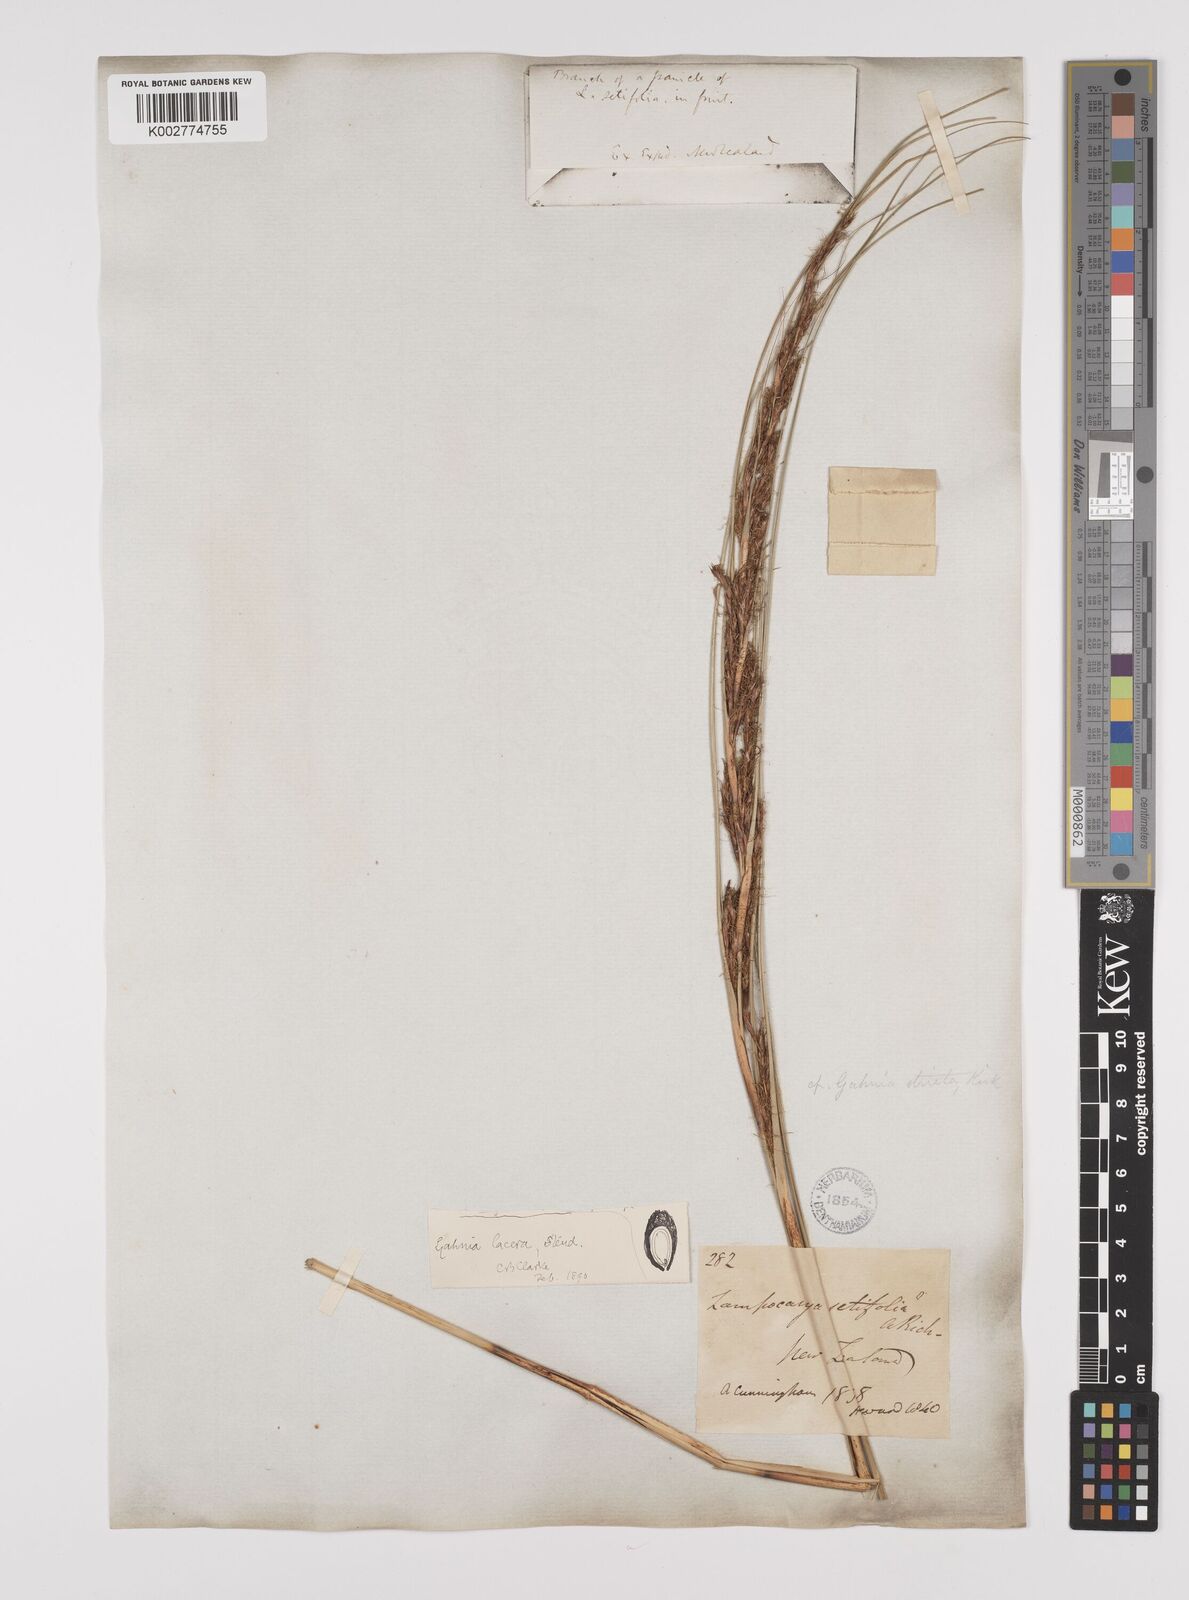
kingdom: Plantae
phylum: Tracheophyta
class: Liliopsida
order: Poales
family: Cyperaceae
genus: Gahnia
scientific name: Gahnia lacera
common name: Sawsedge
